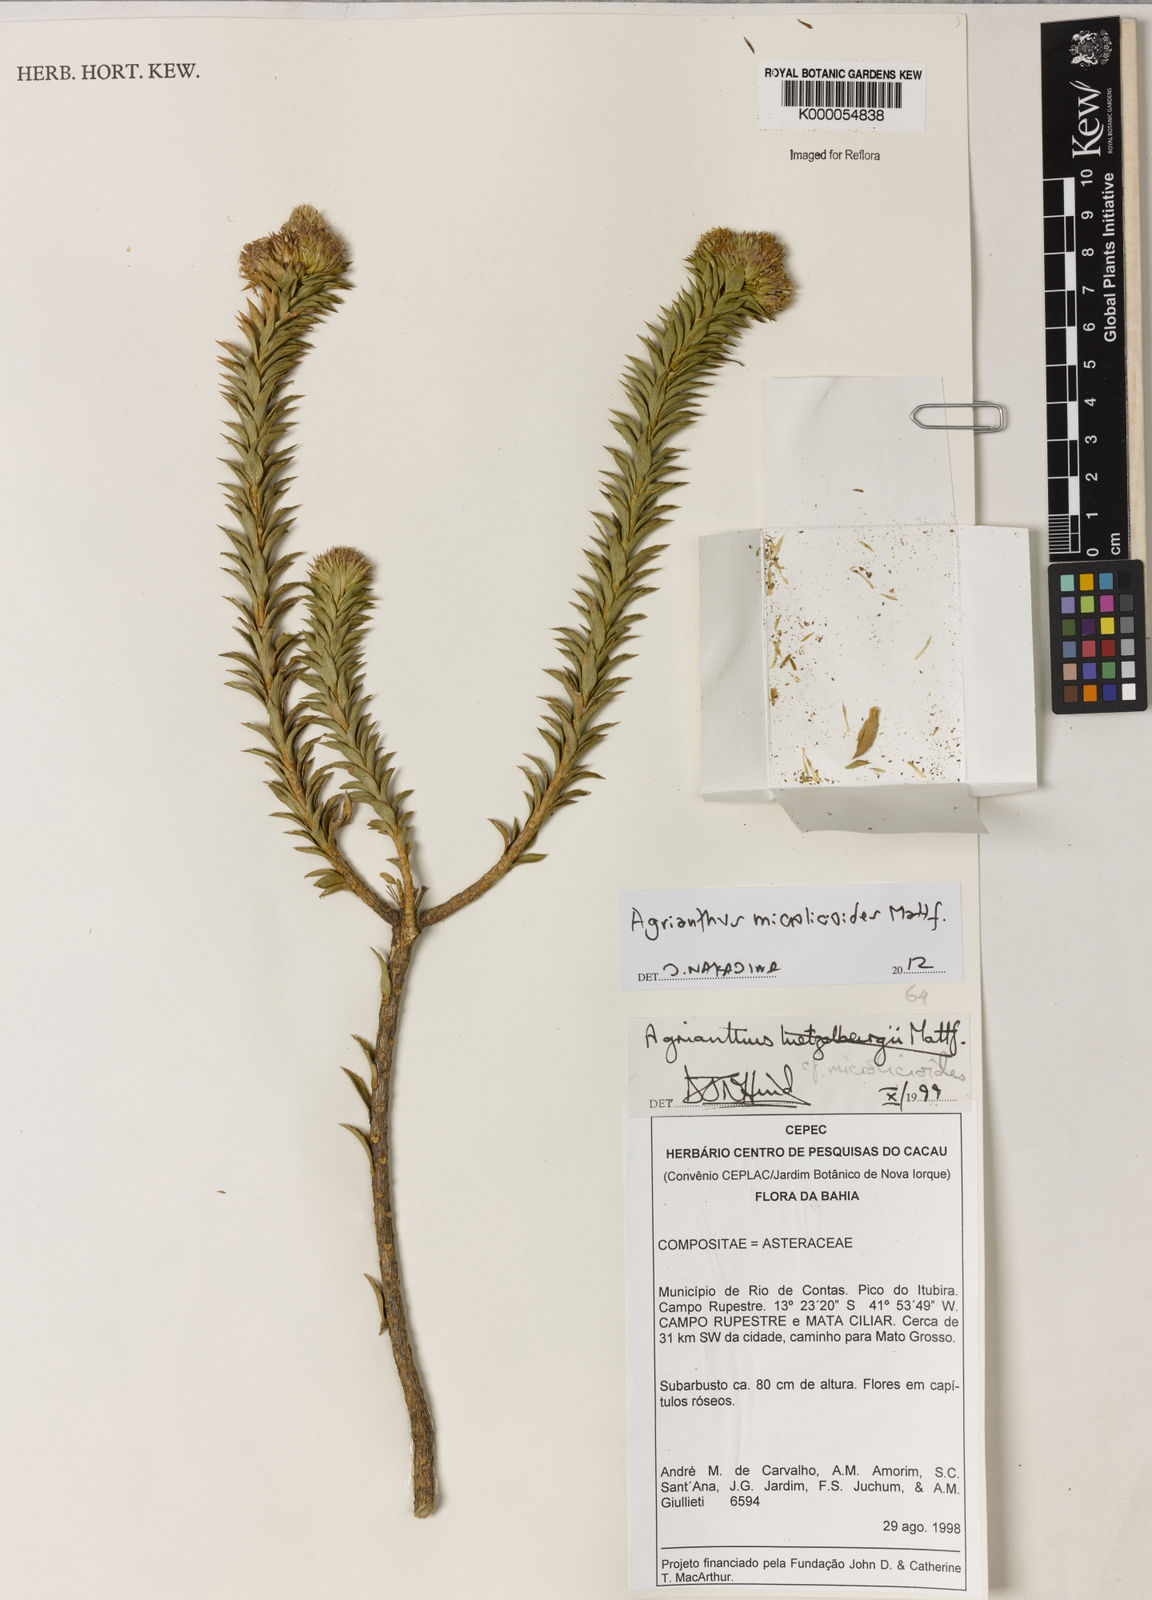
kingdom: Plantae
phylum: Tracheophyta
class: Magnoliopsida
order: Asterales
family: Asteraceae
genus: Agrianthus
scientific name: Agrianthus
